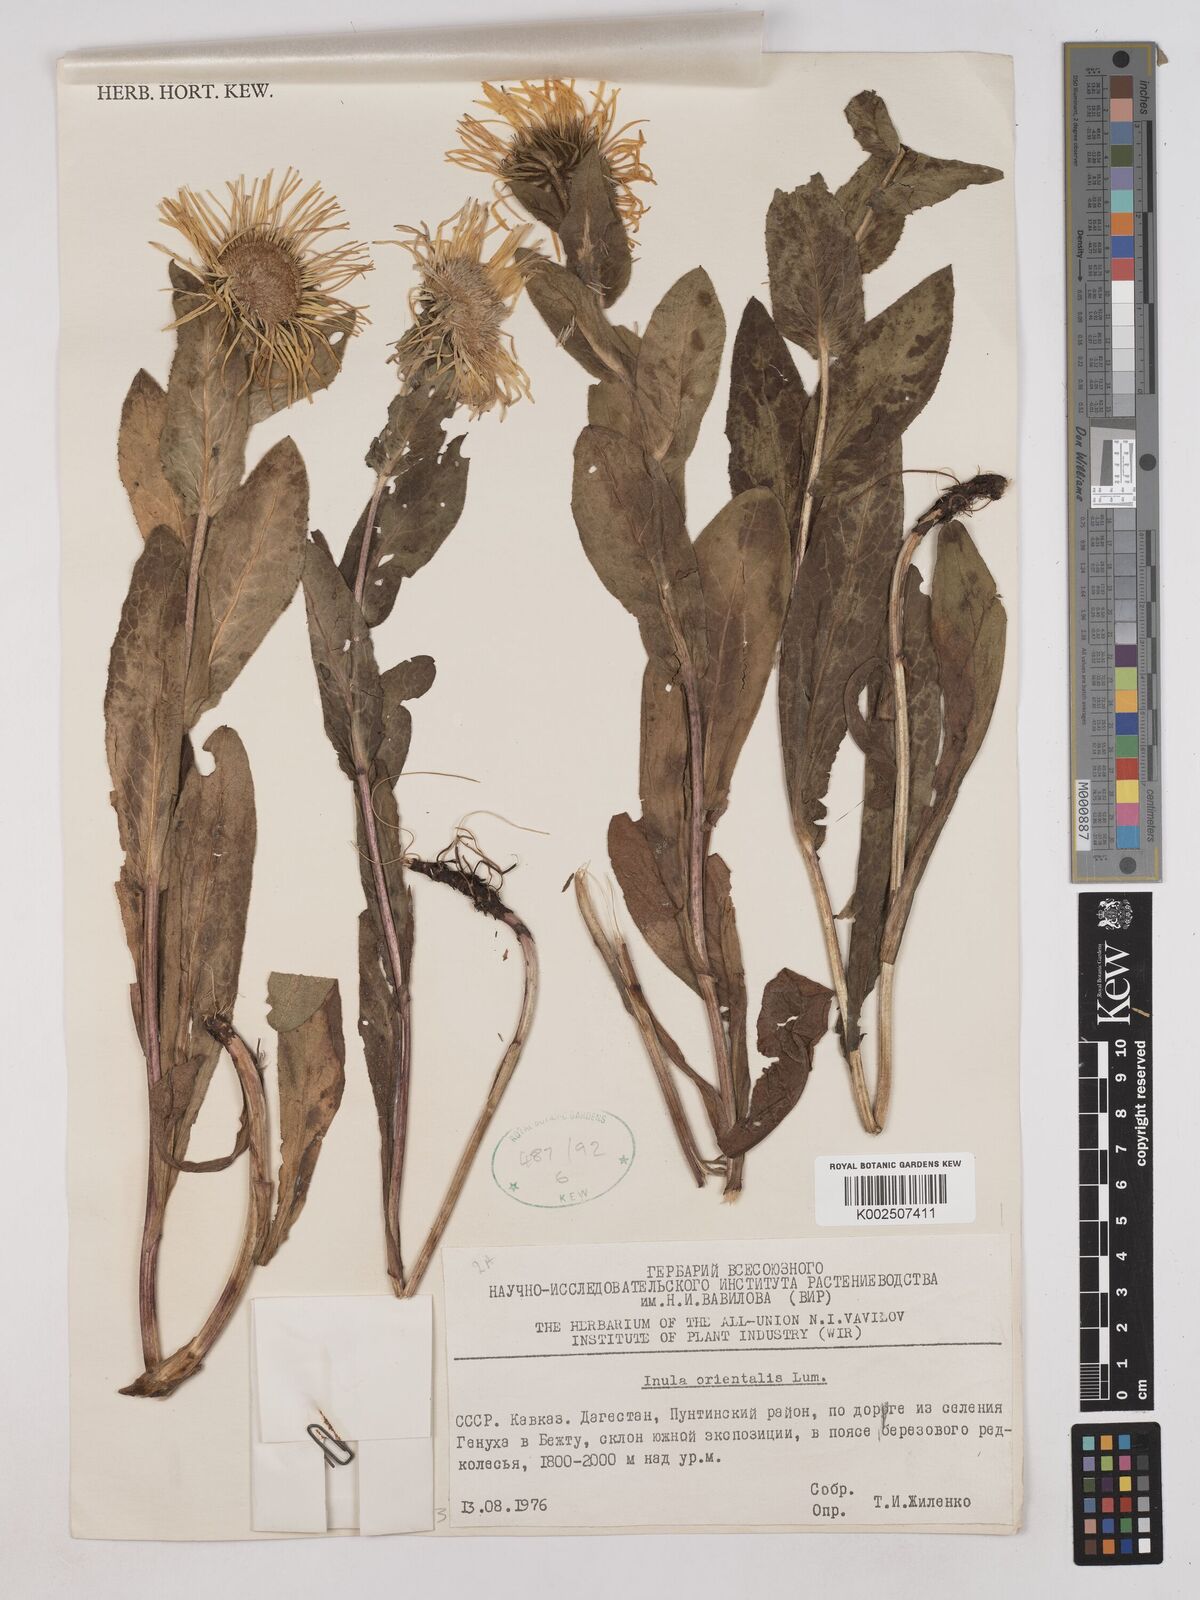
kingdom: Plantae
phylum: Tracheophyta
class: Magnoliopsida
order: Asterales
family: Asteraceae
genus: Pentanema
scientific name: Pentanema orientale
